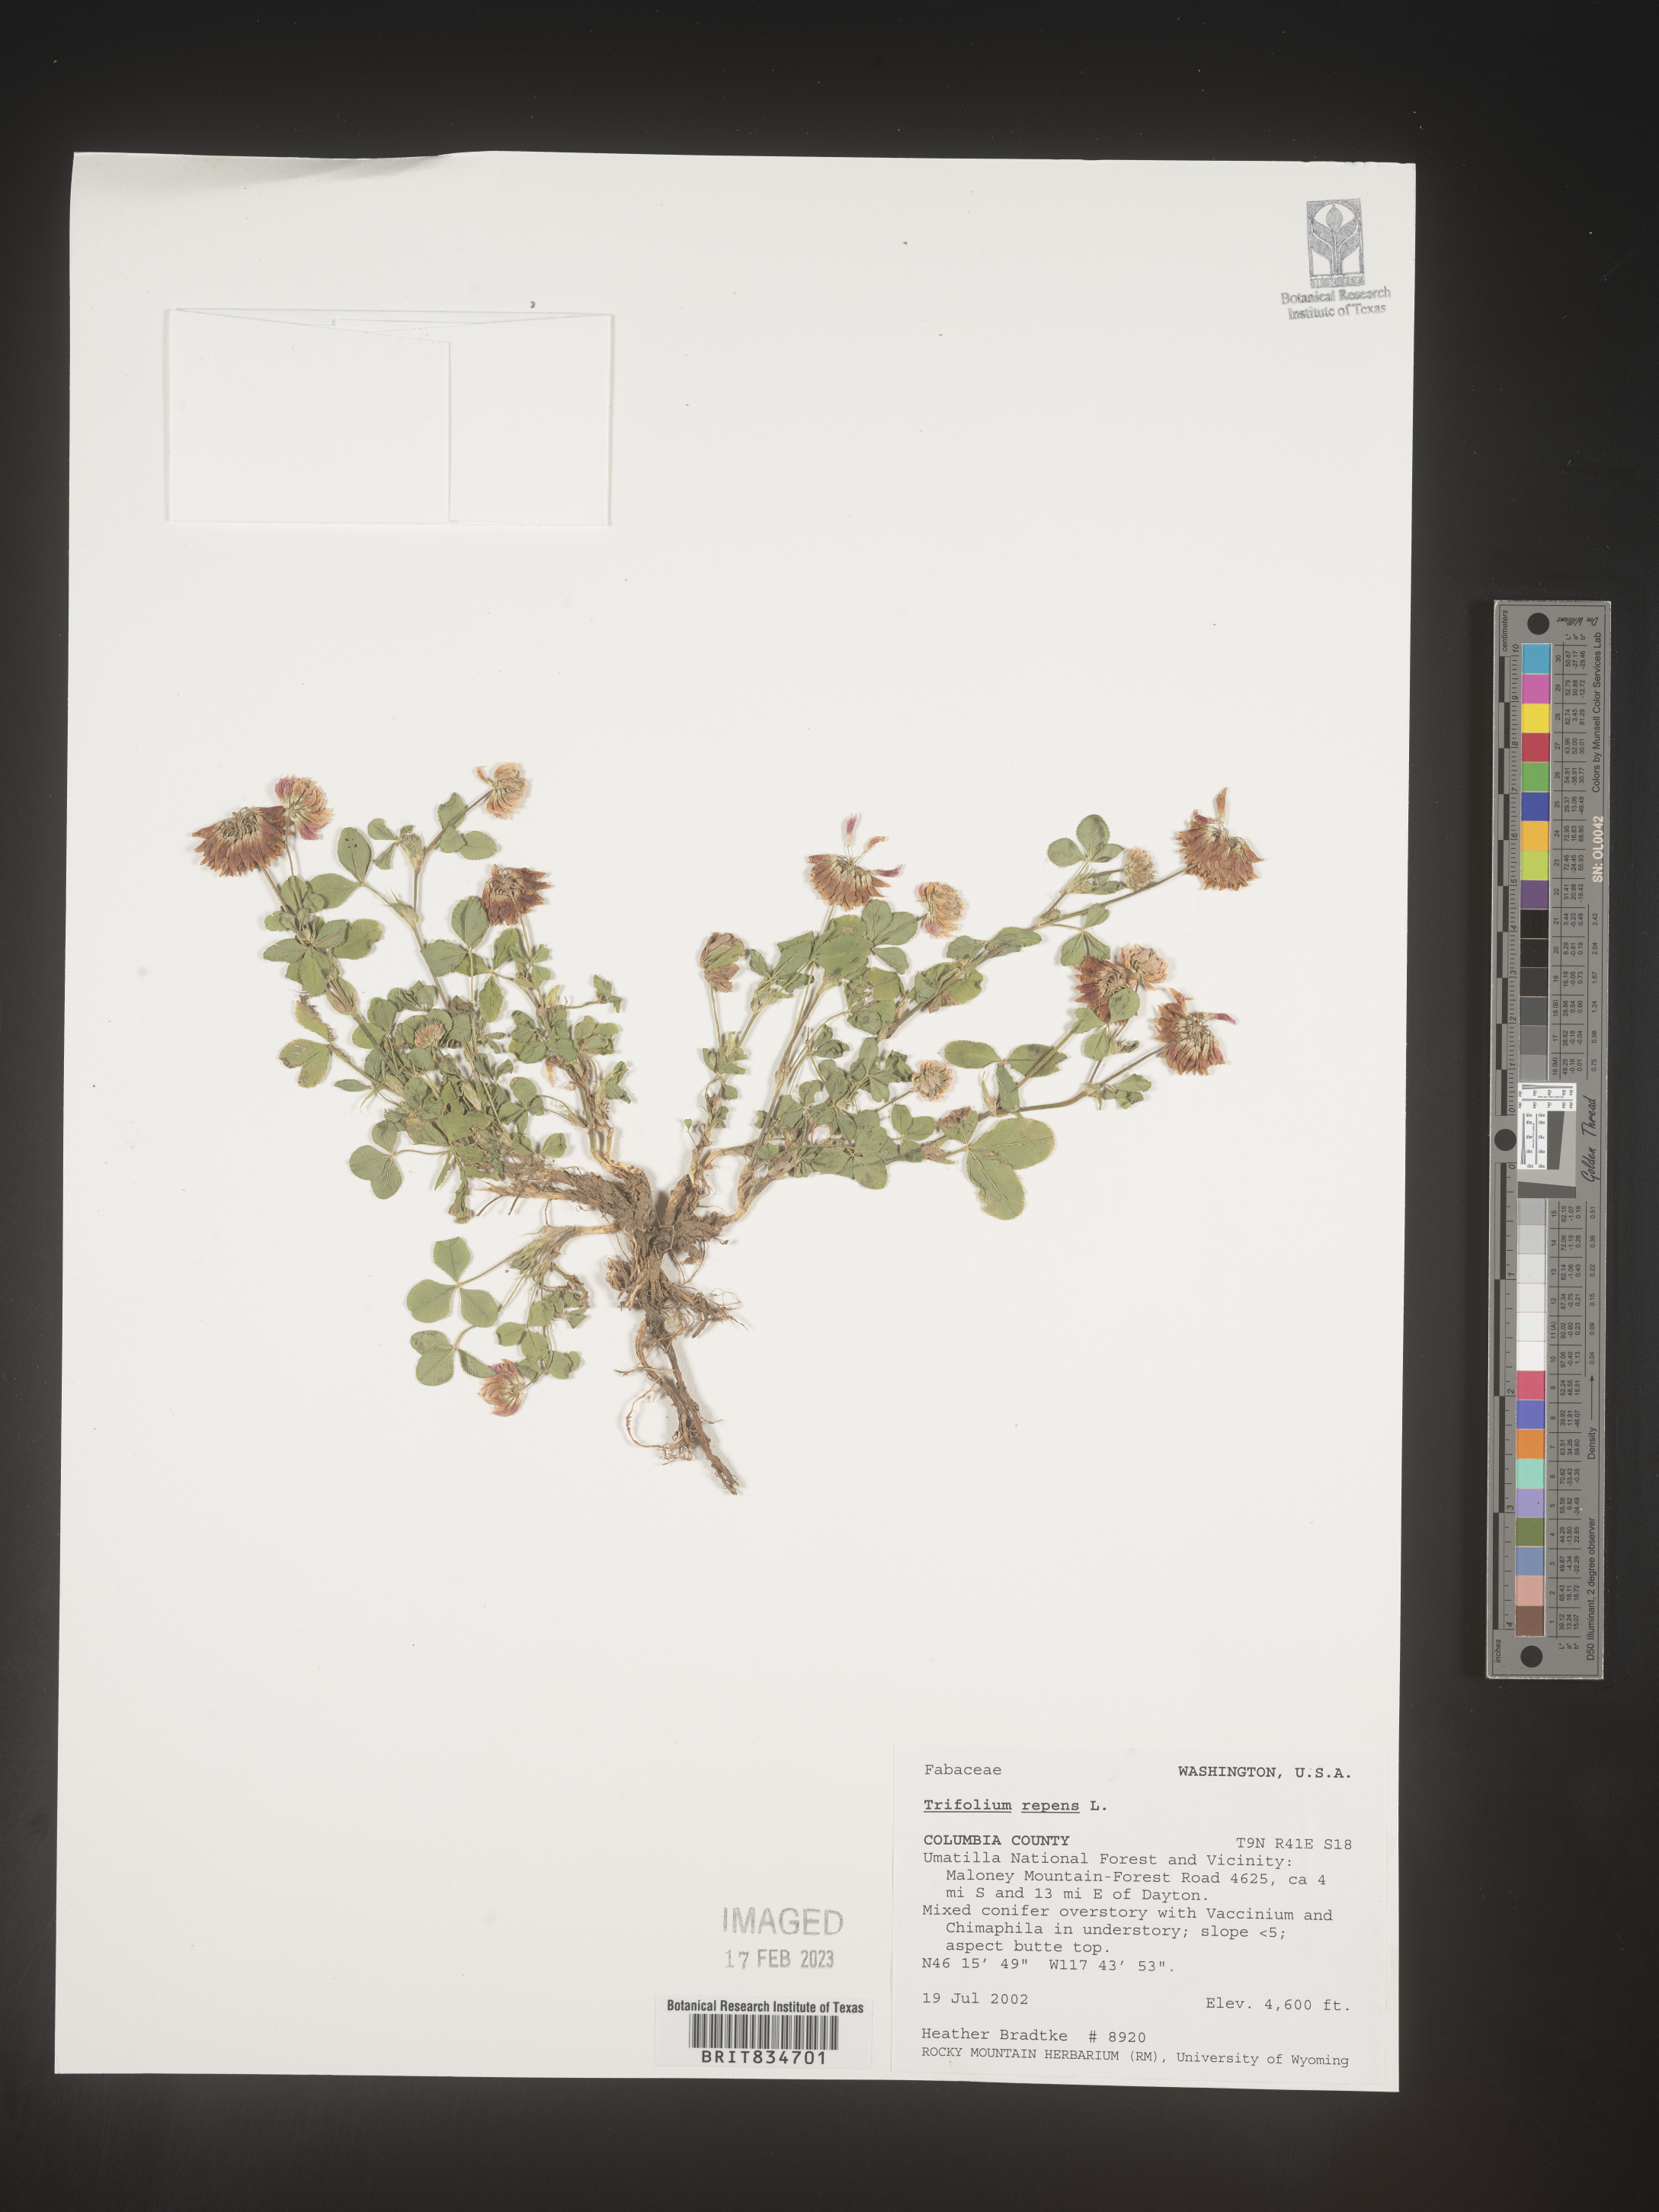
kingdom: Plantae
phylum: Tracheophyta
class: Magnoliopsida
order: Fabales
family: Fabaceae
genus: Trifolium
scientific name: Trifolium repens
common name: White clover
